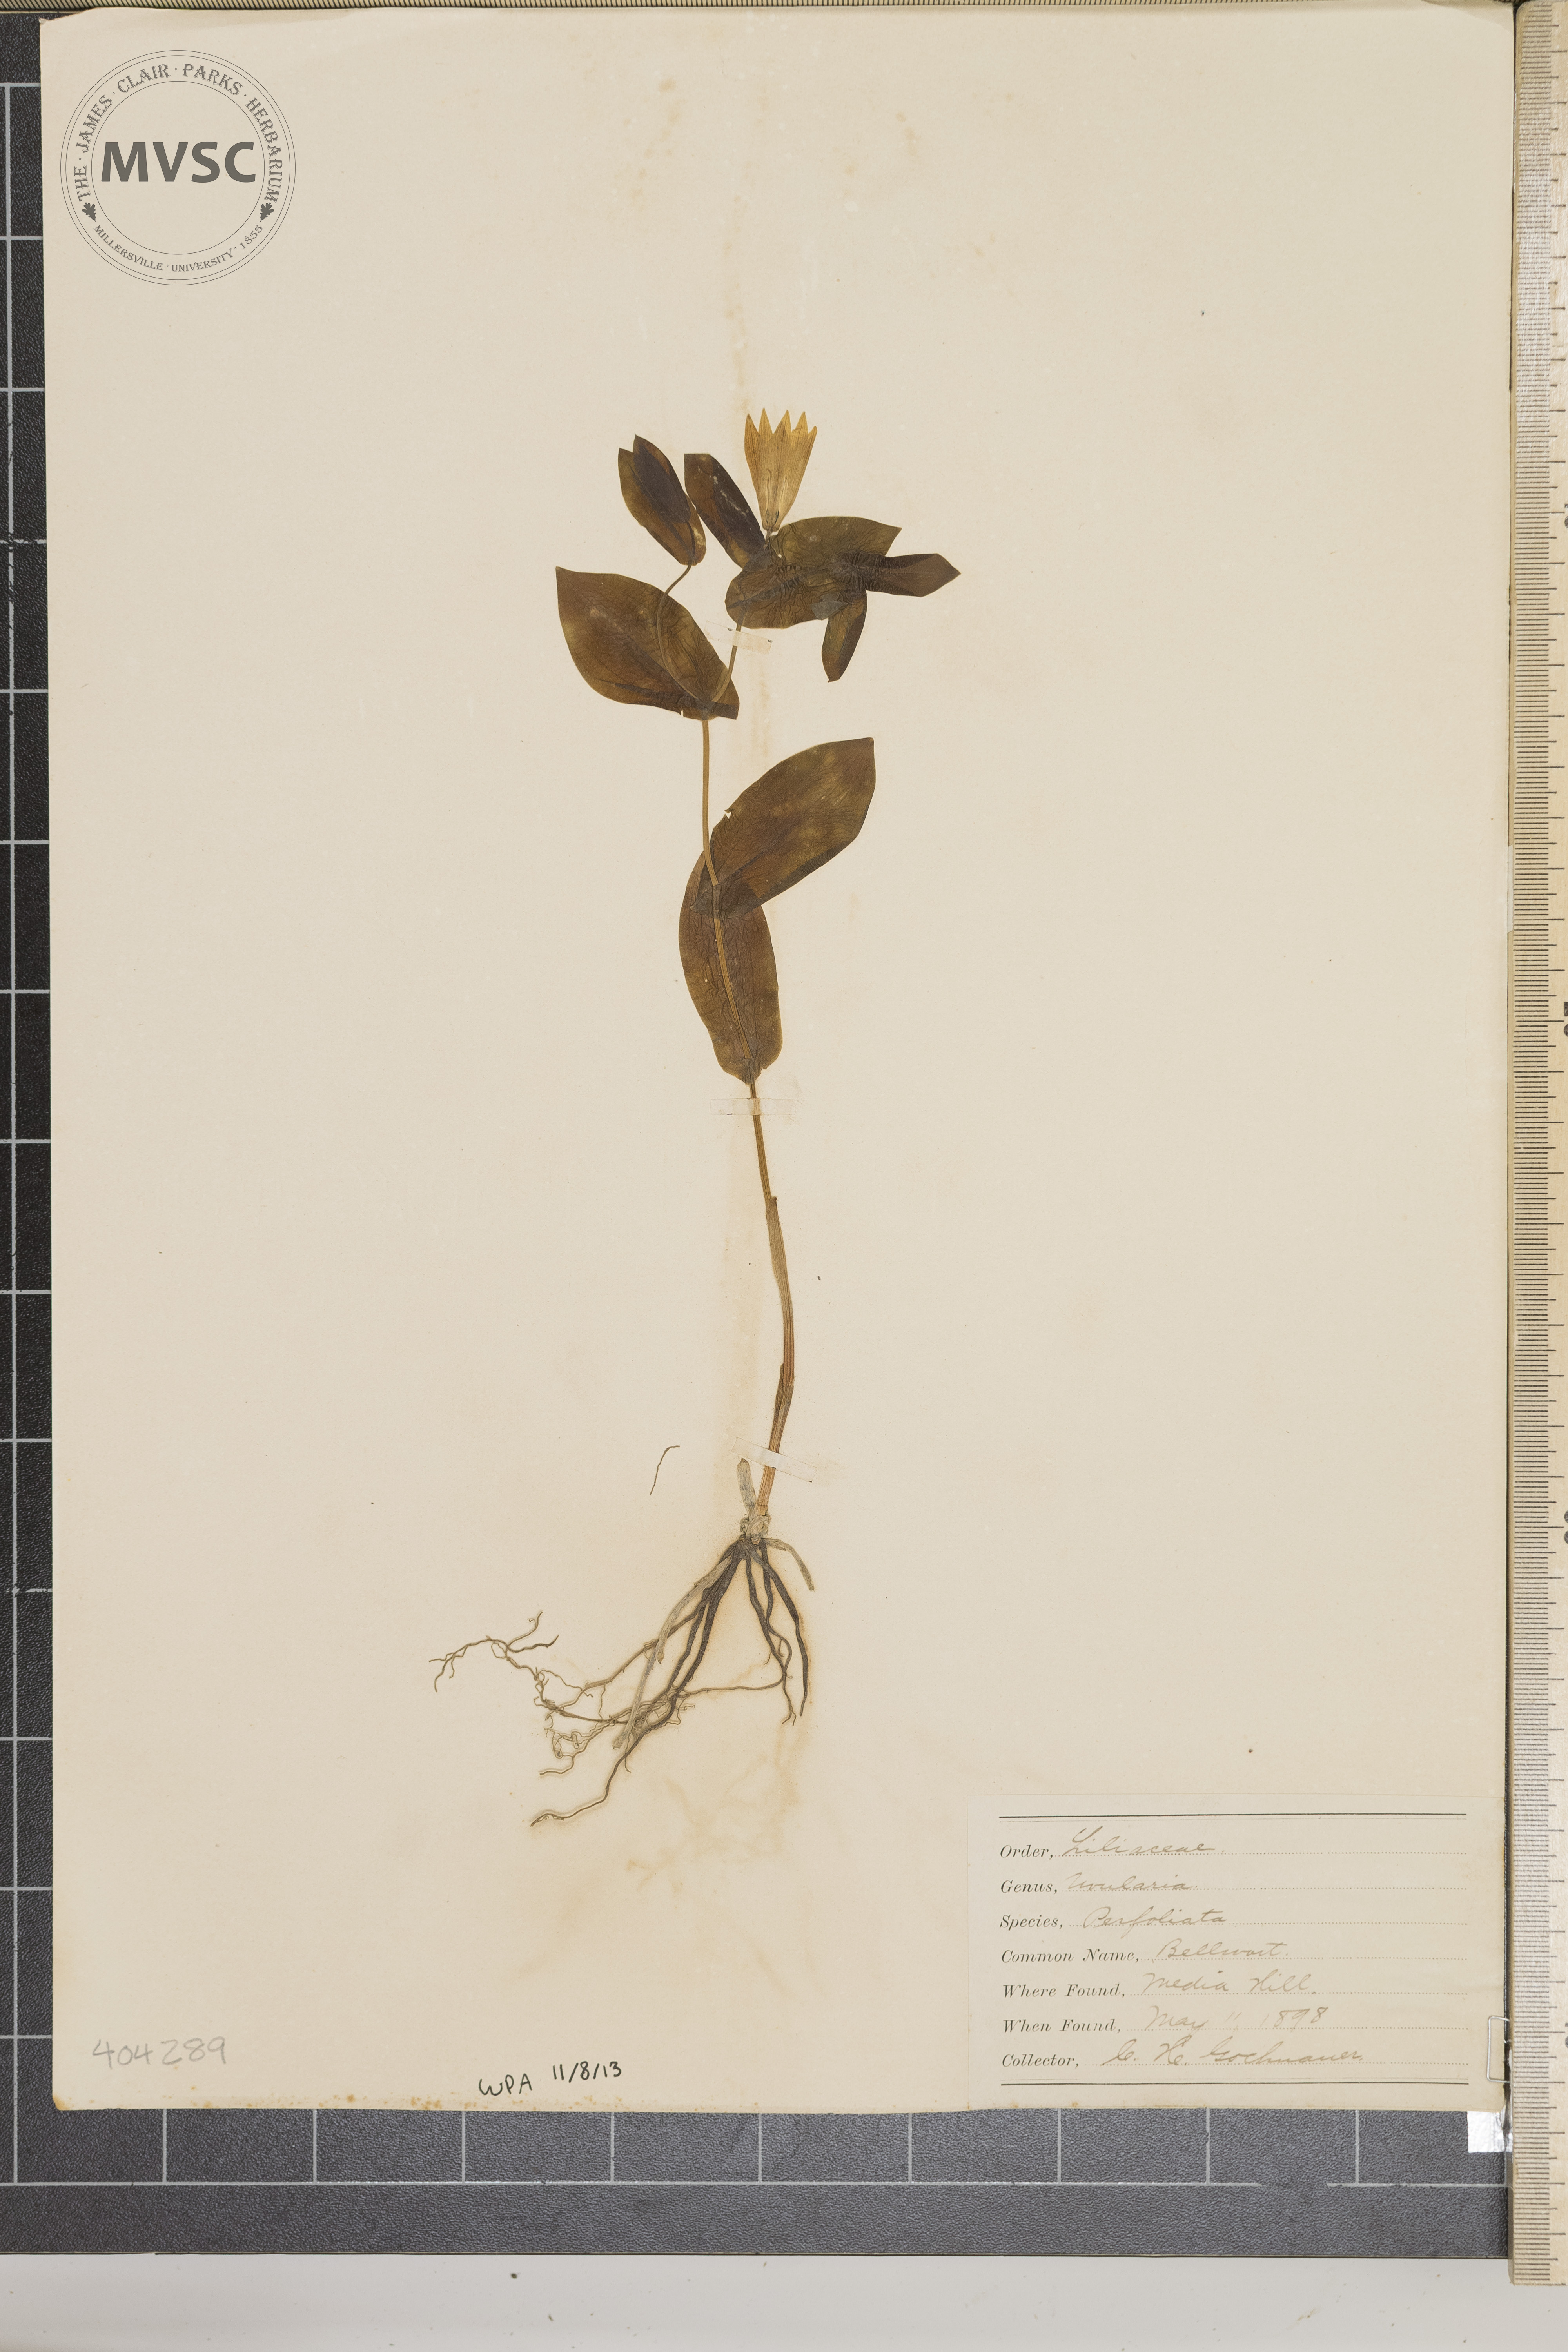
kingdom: Plantae
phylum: Tracheophyta
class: Liliopsida
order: Liliales
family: Colchicaceae
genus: Uvularia
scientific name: Uvularia perfoliata
